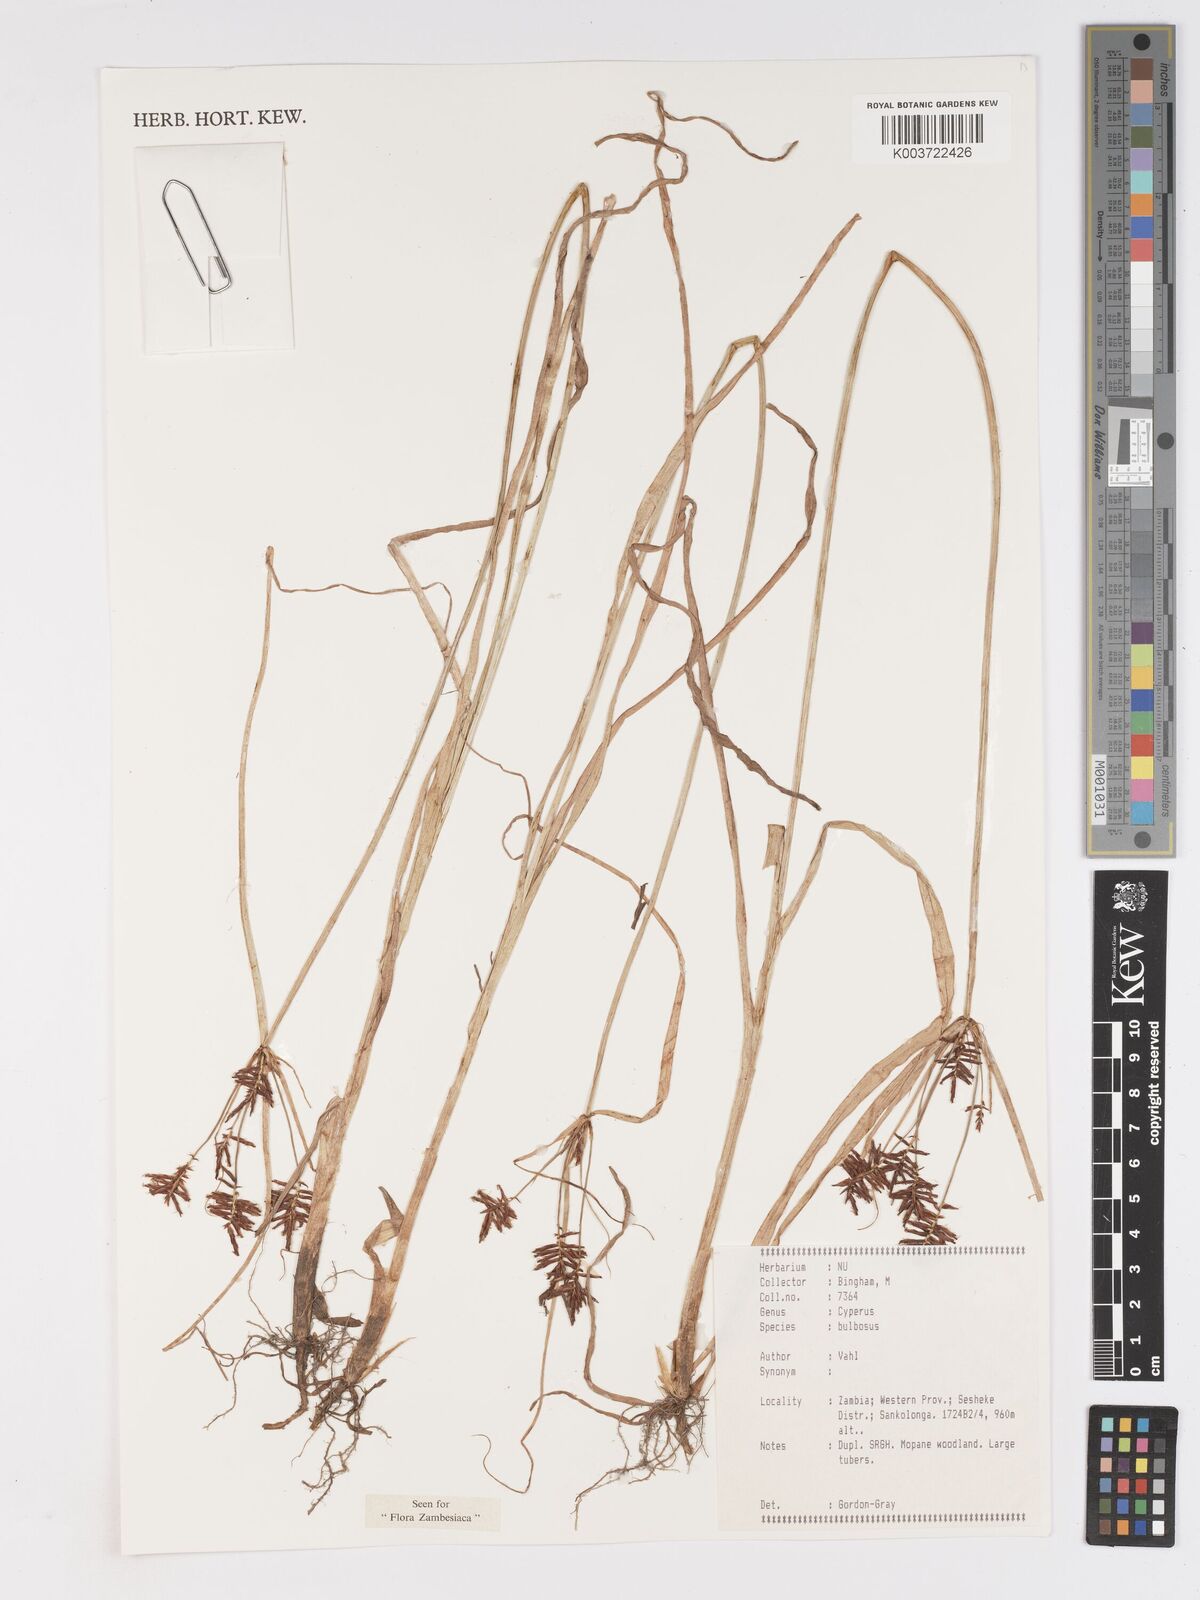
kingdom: Plantae
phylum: Tracheophyta
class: Liliopsida
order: Poales
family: Cyperaceae
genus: Cyperus
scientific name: Cyperus bulbosus
